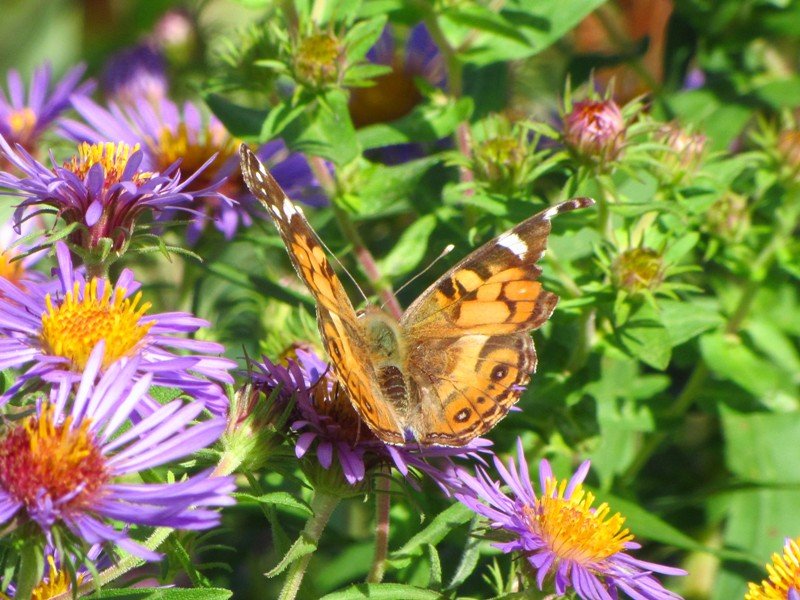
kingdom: Animalia
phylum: Arthropoda
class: Insecta
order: Lepidoptera
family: Nymphalidae
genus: Vanessa
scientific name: Vanessa virginiensis
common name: American Lady
